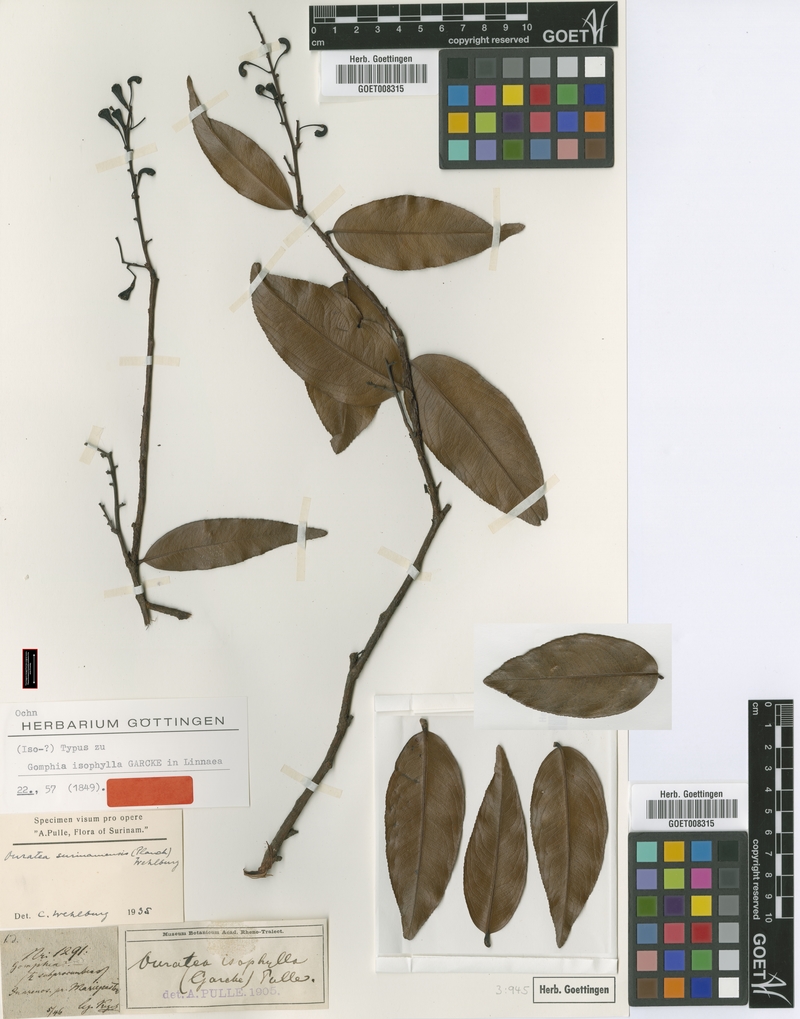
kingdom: Plantae
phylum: Tracheophyta
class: Magnoliopsida
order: Malpighiales
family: Ochnaceae
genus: Ouratea
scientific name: Ouratea cardiosperma
